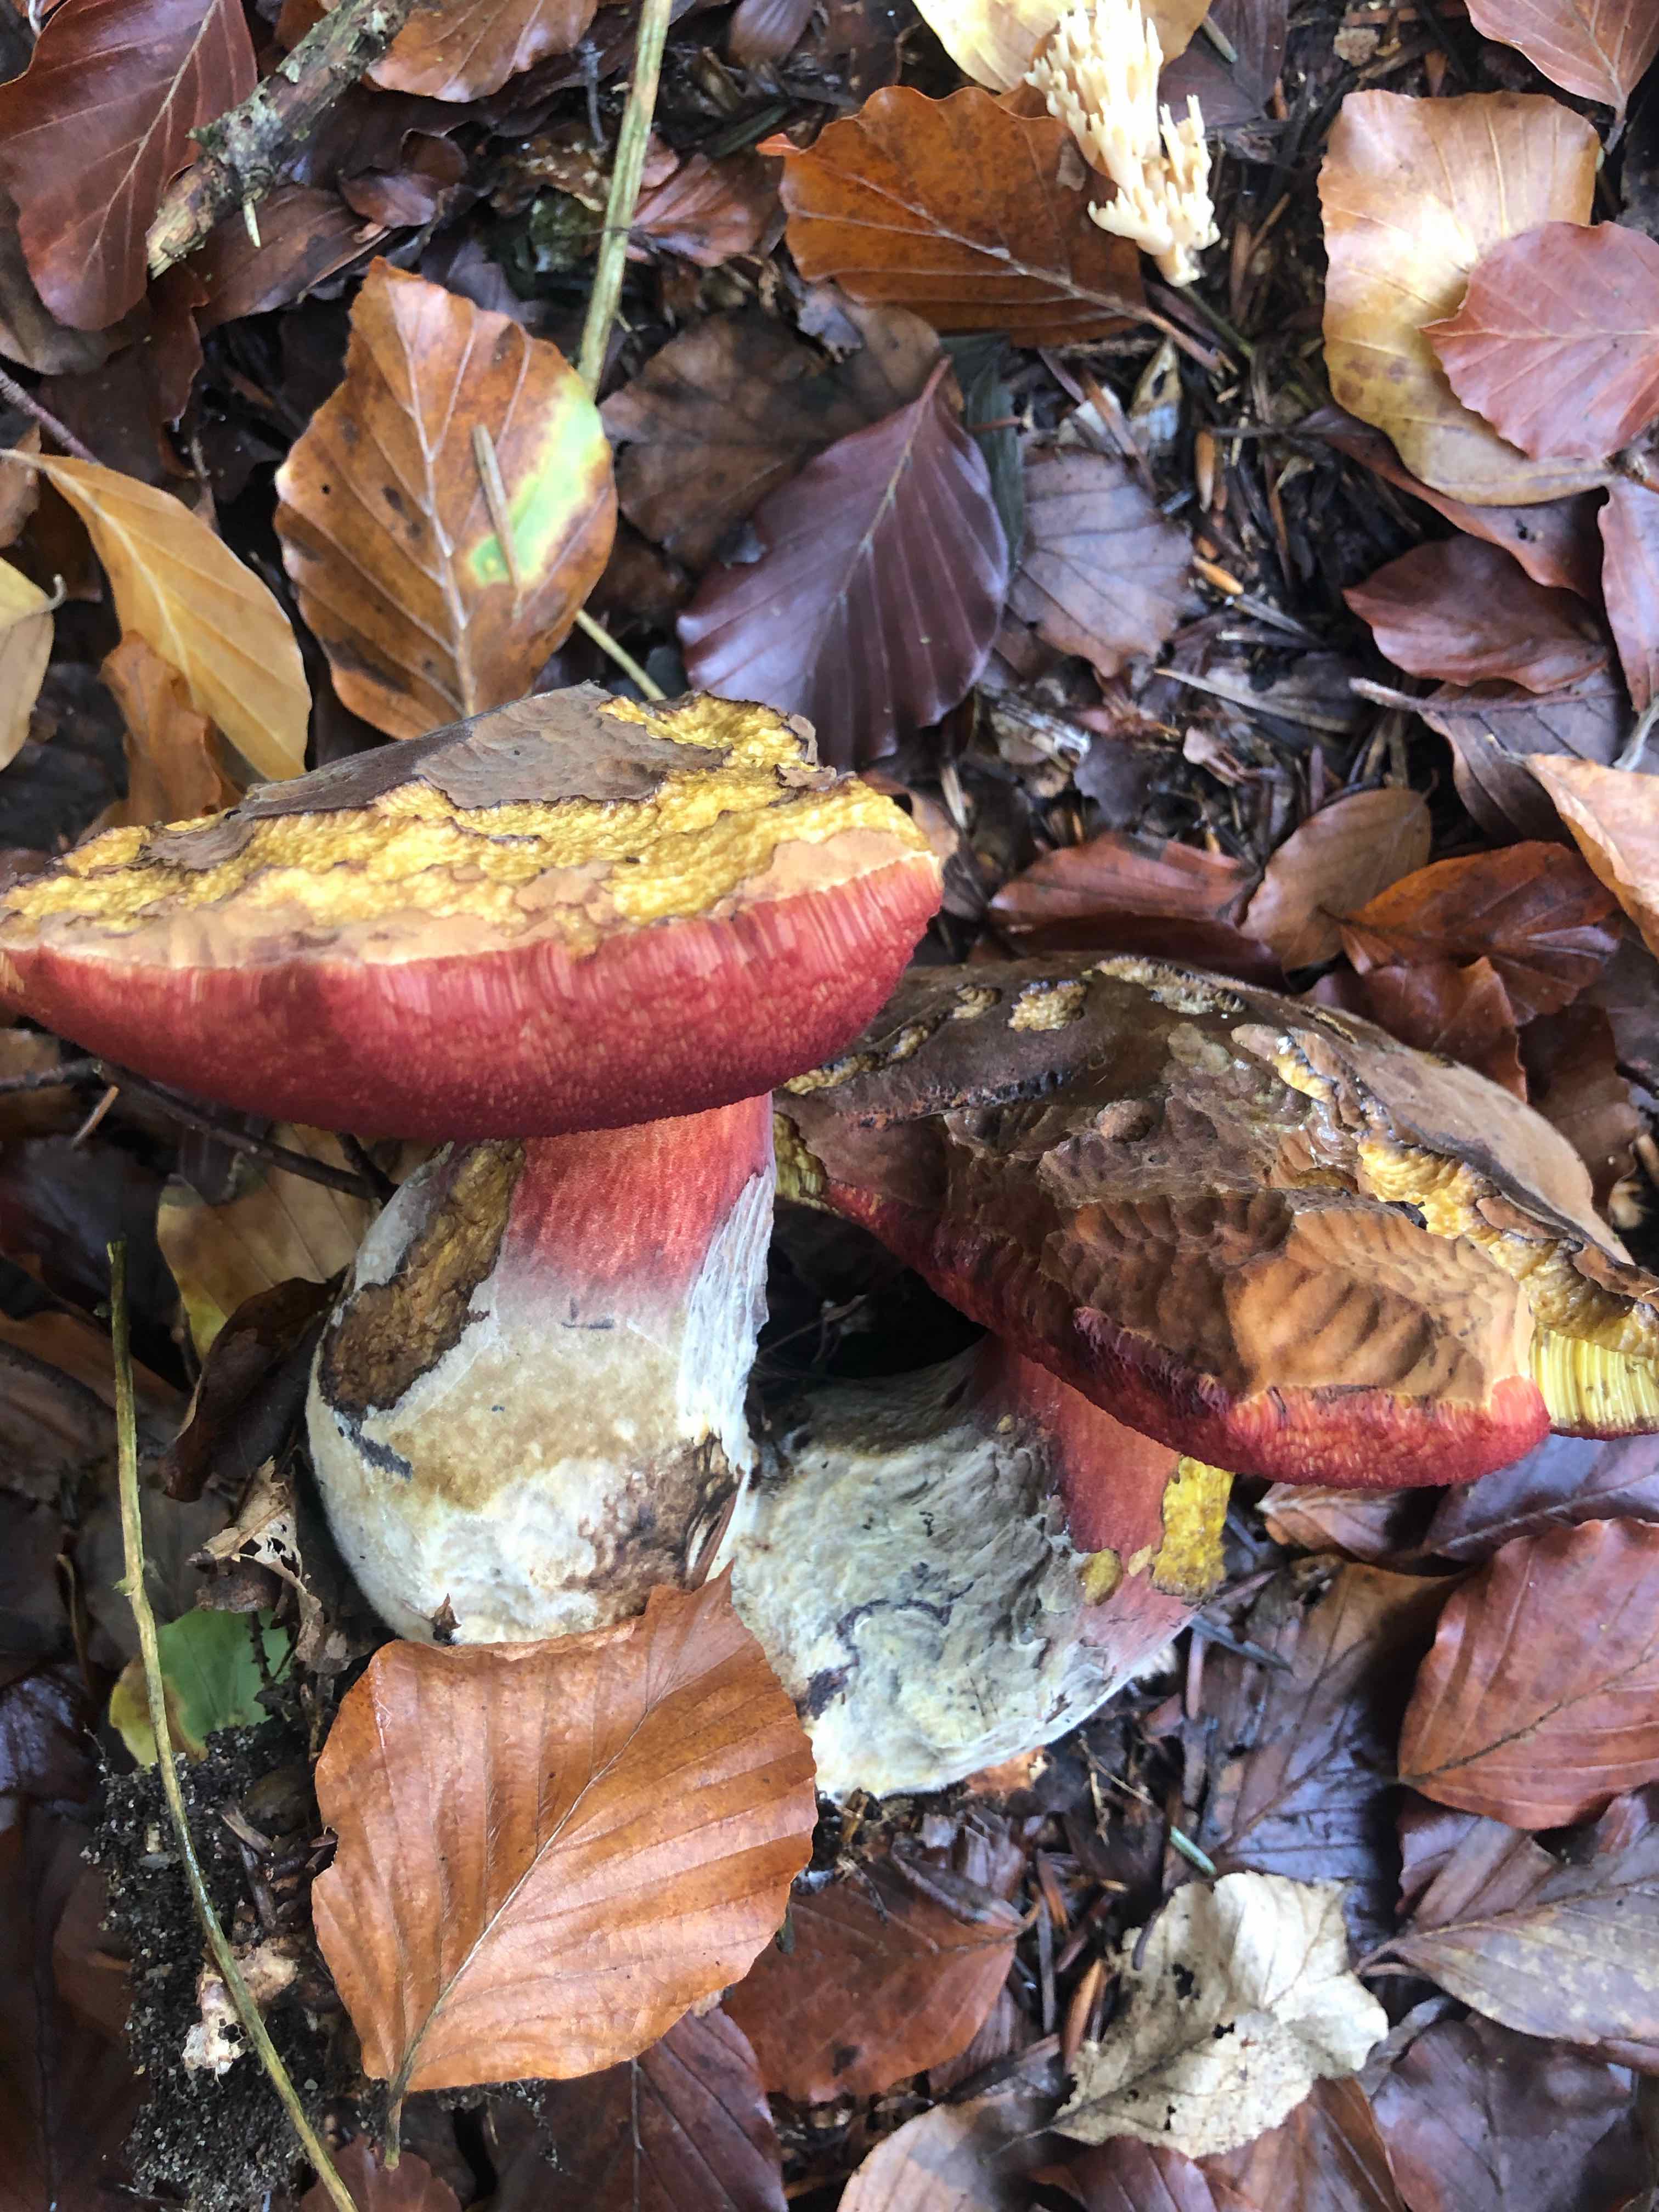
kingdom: Fungi
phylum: Basidiomycota
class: Agaricomycetes
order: Boletales
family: Boletaceae
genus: Neoboletus
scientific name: Neoboletus erythropus
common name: punktstokket indigorørhat
